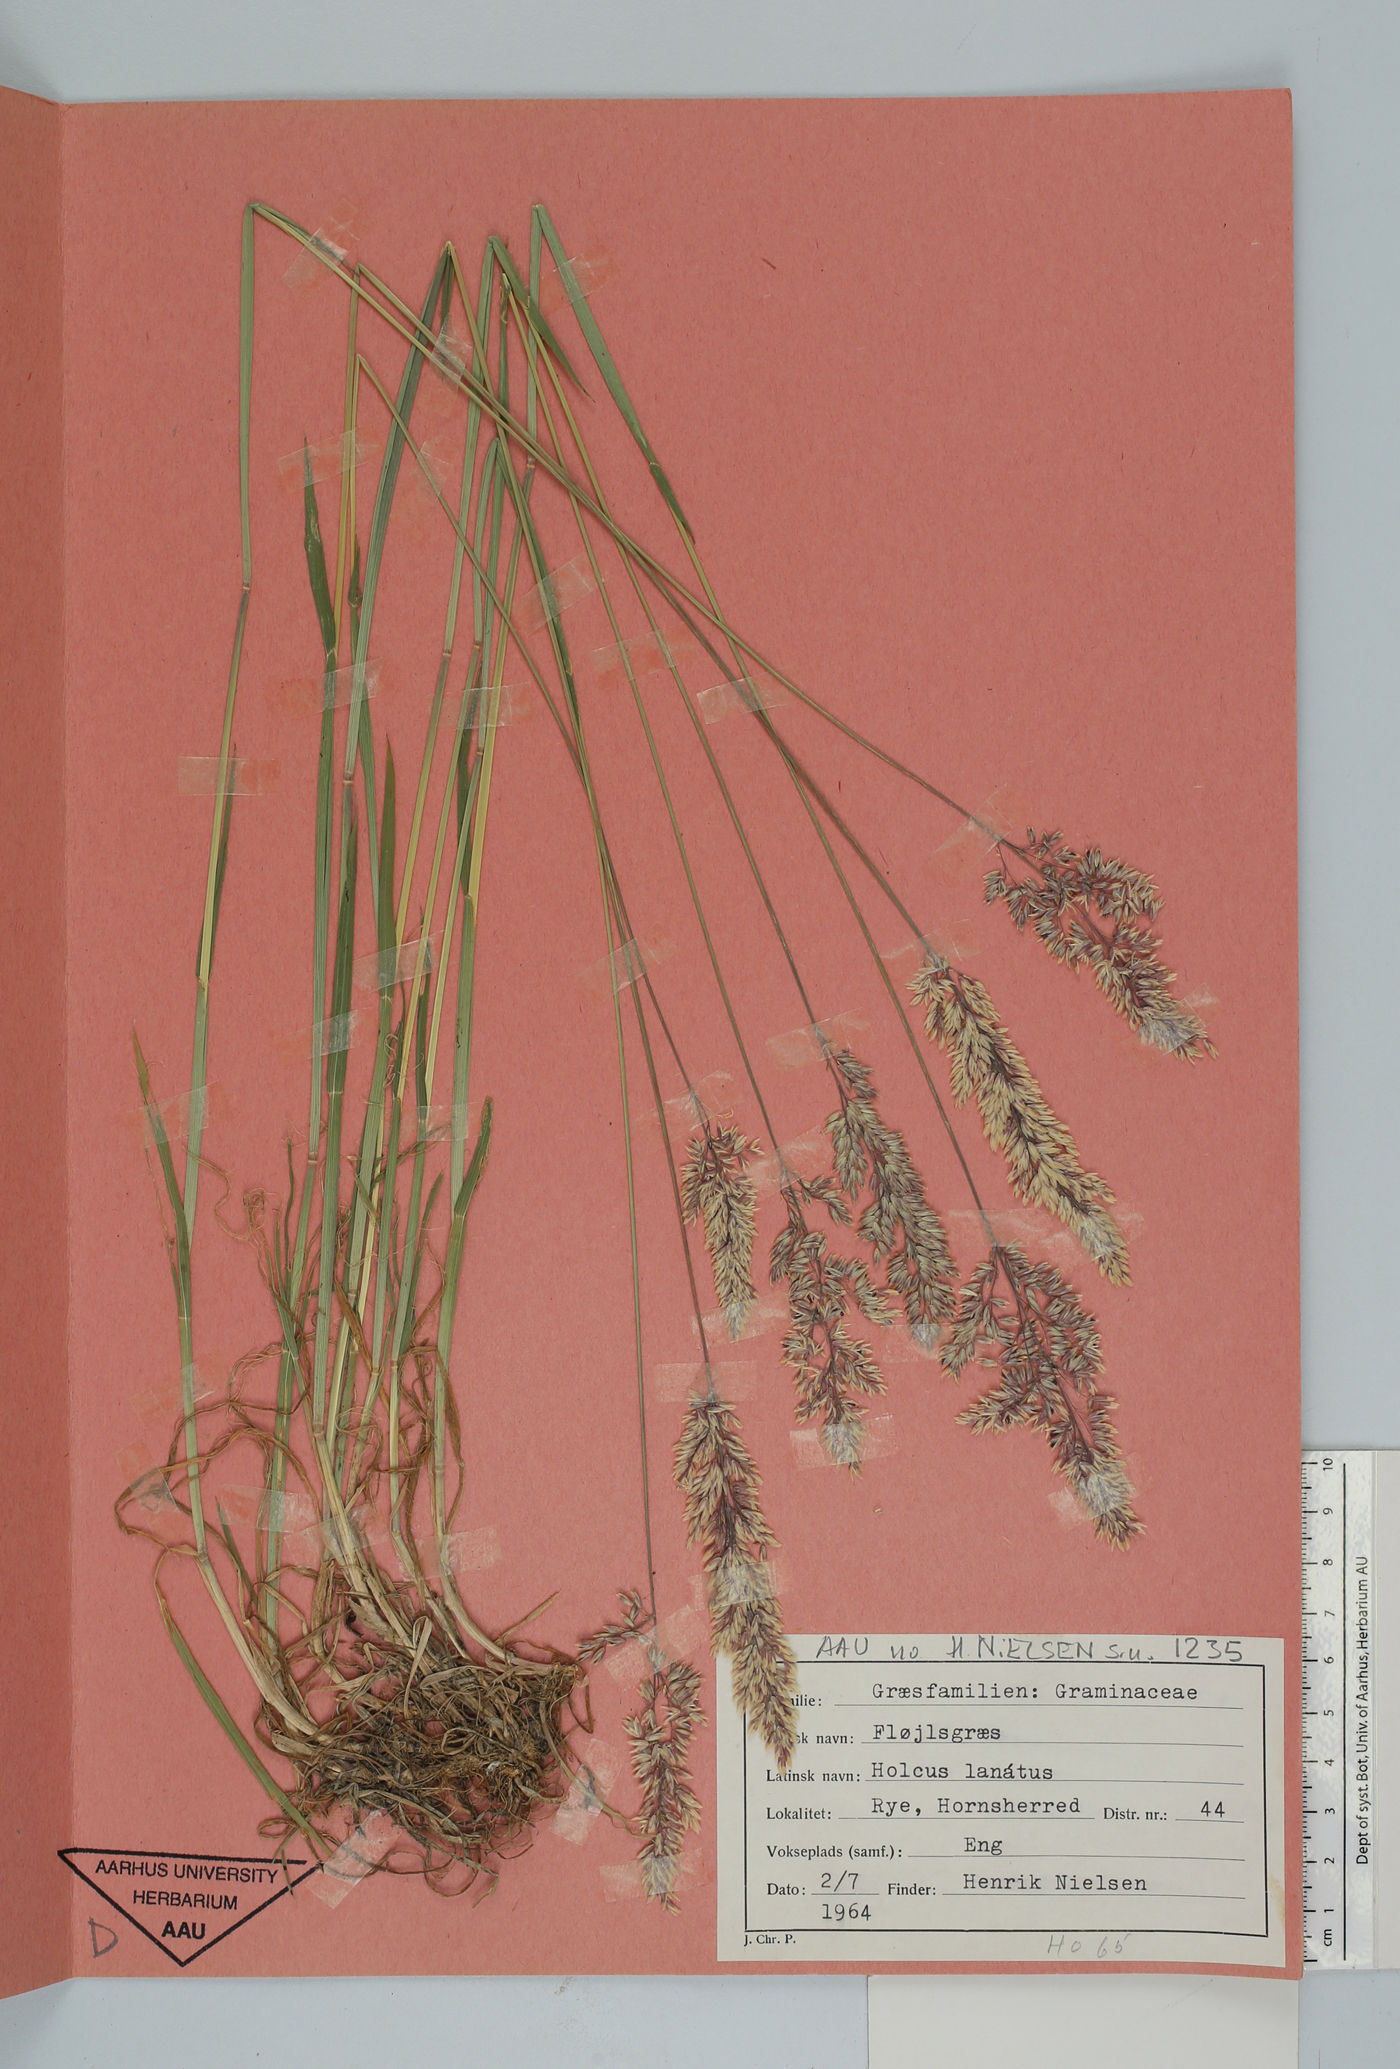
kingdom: Plantae
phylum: Tracheophyta
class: Liliopsida
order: Poales
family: Poaceae
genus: Holcus
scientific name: Holcus lanatus
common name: Yorkshire-fog
